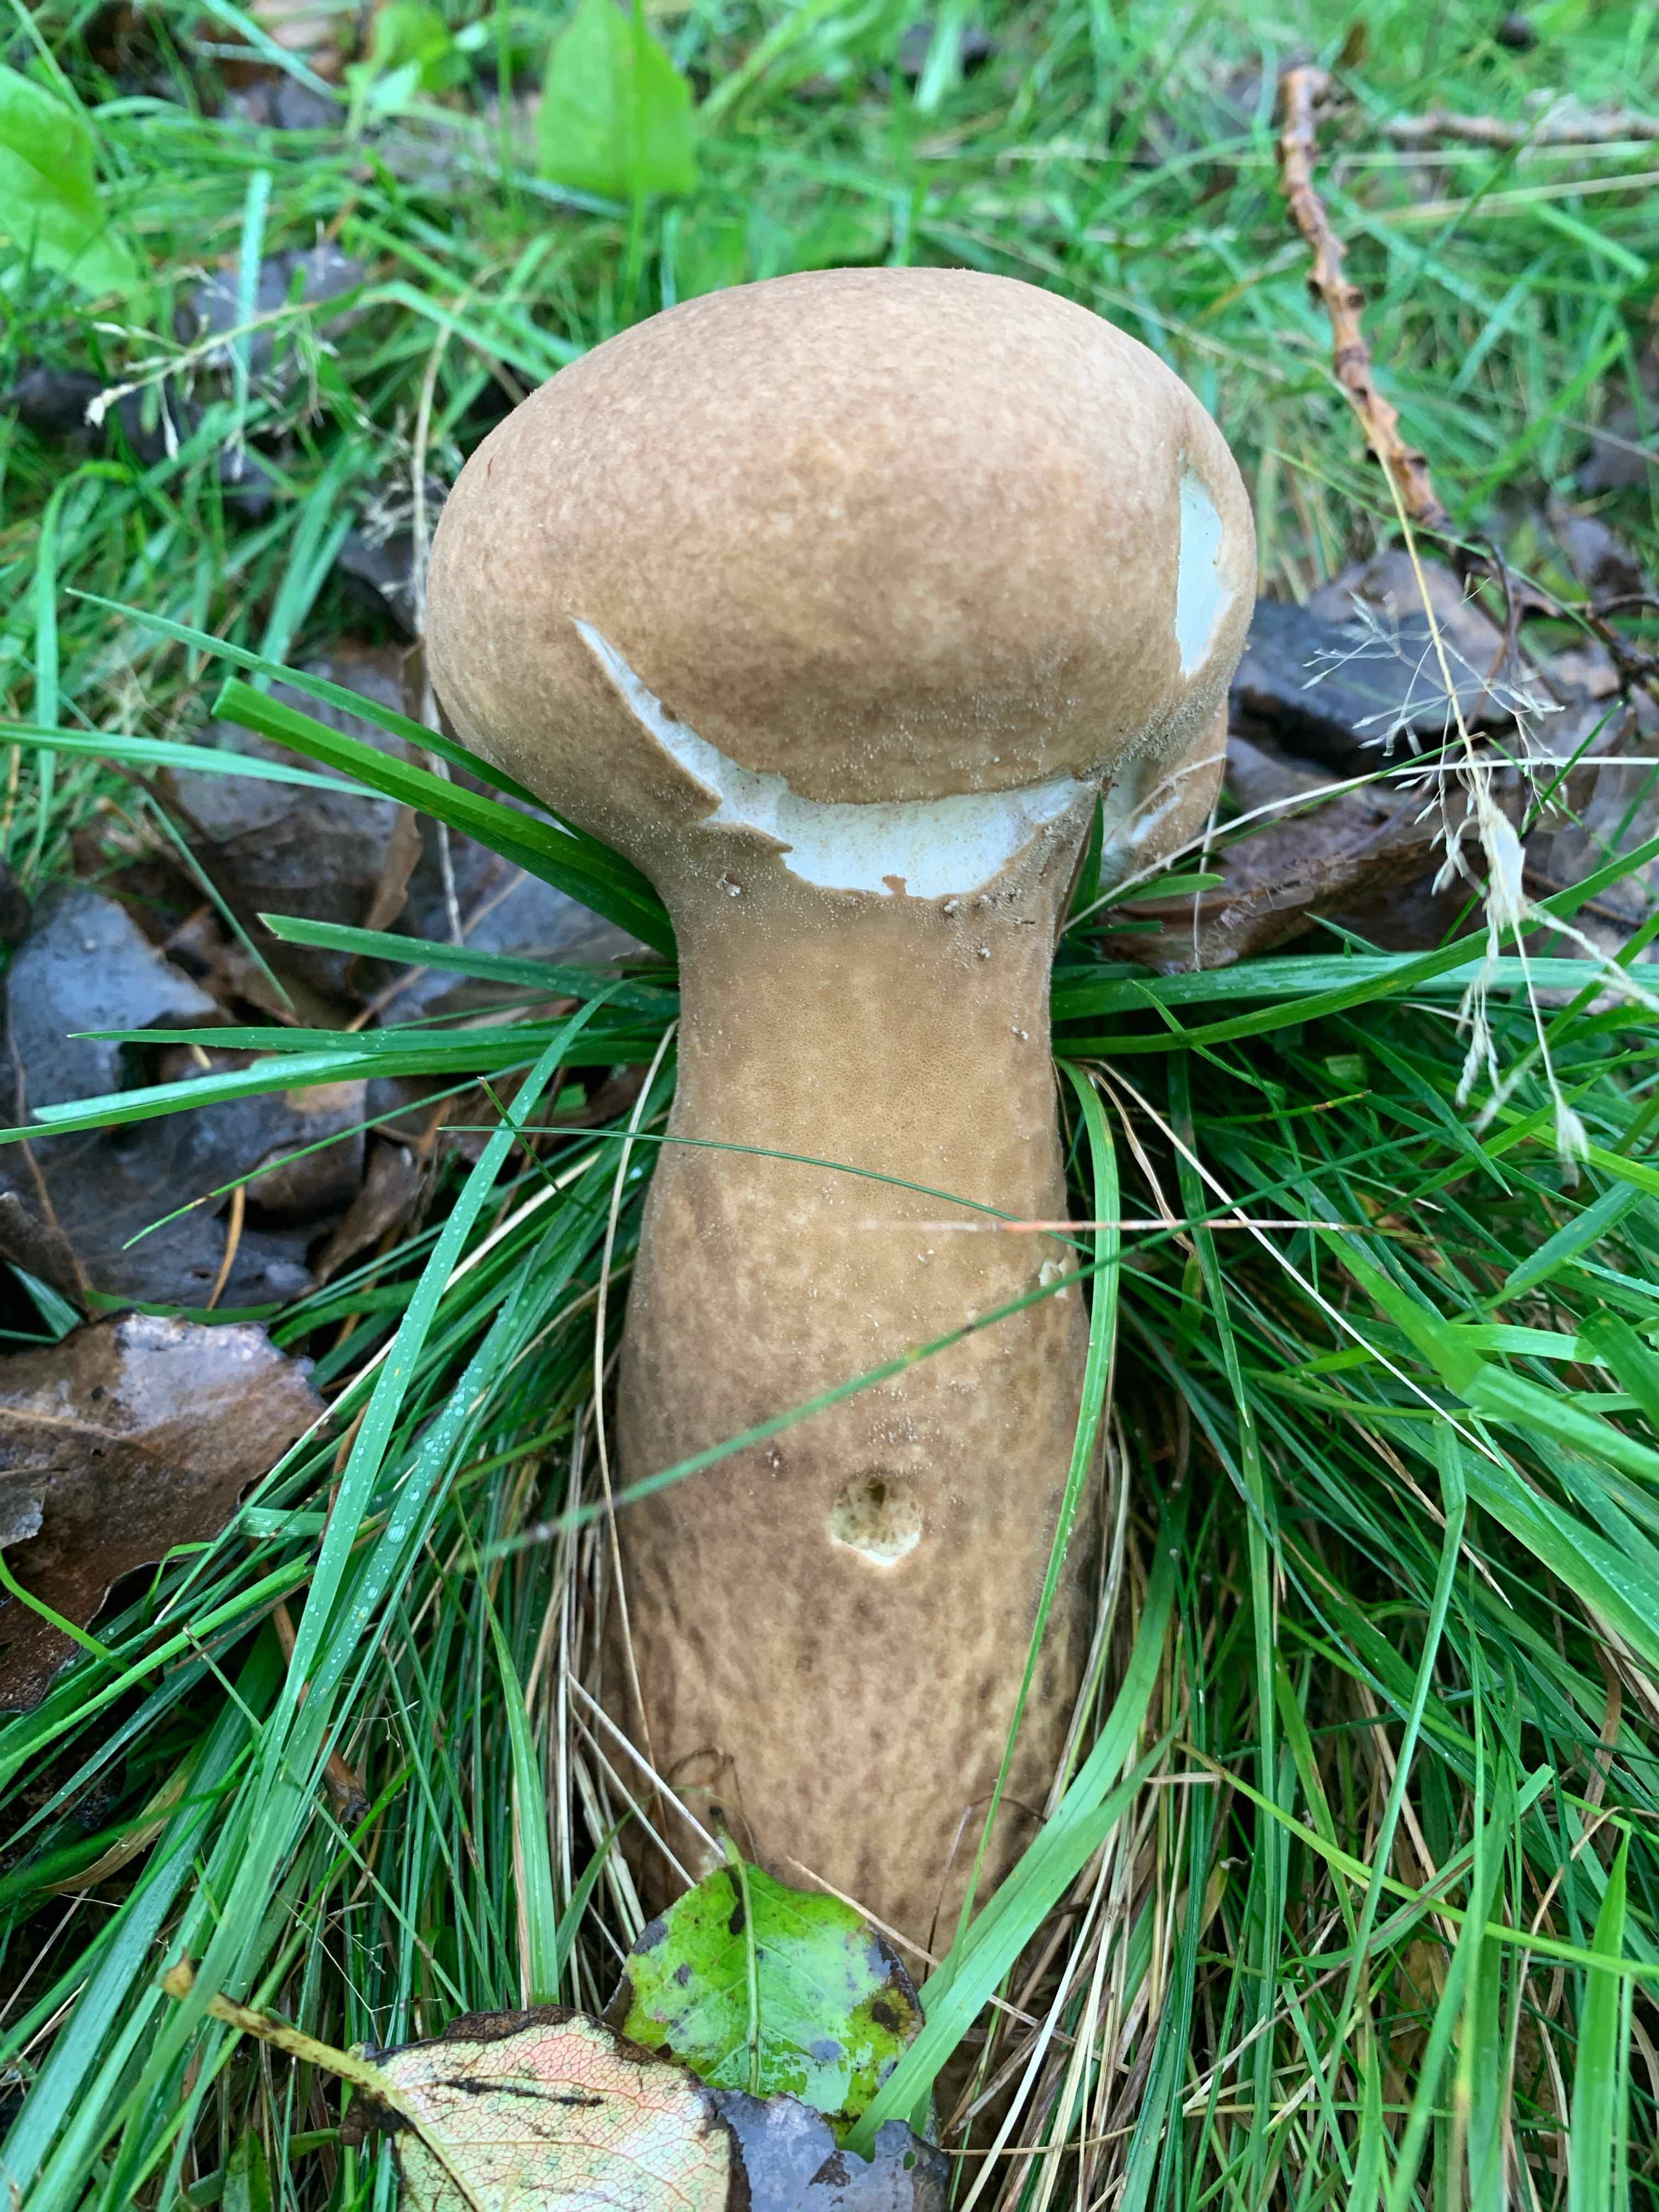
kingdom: Fungi
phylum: Basidiomycota
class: Agaricomycetes
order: Agaricales
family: Lycoperdaceae
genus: Lycoperdon
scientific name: Lycoperdon excipuliforme
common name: højstokket støvbold
